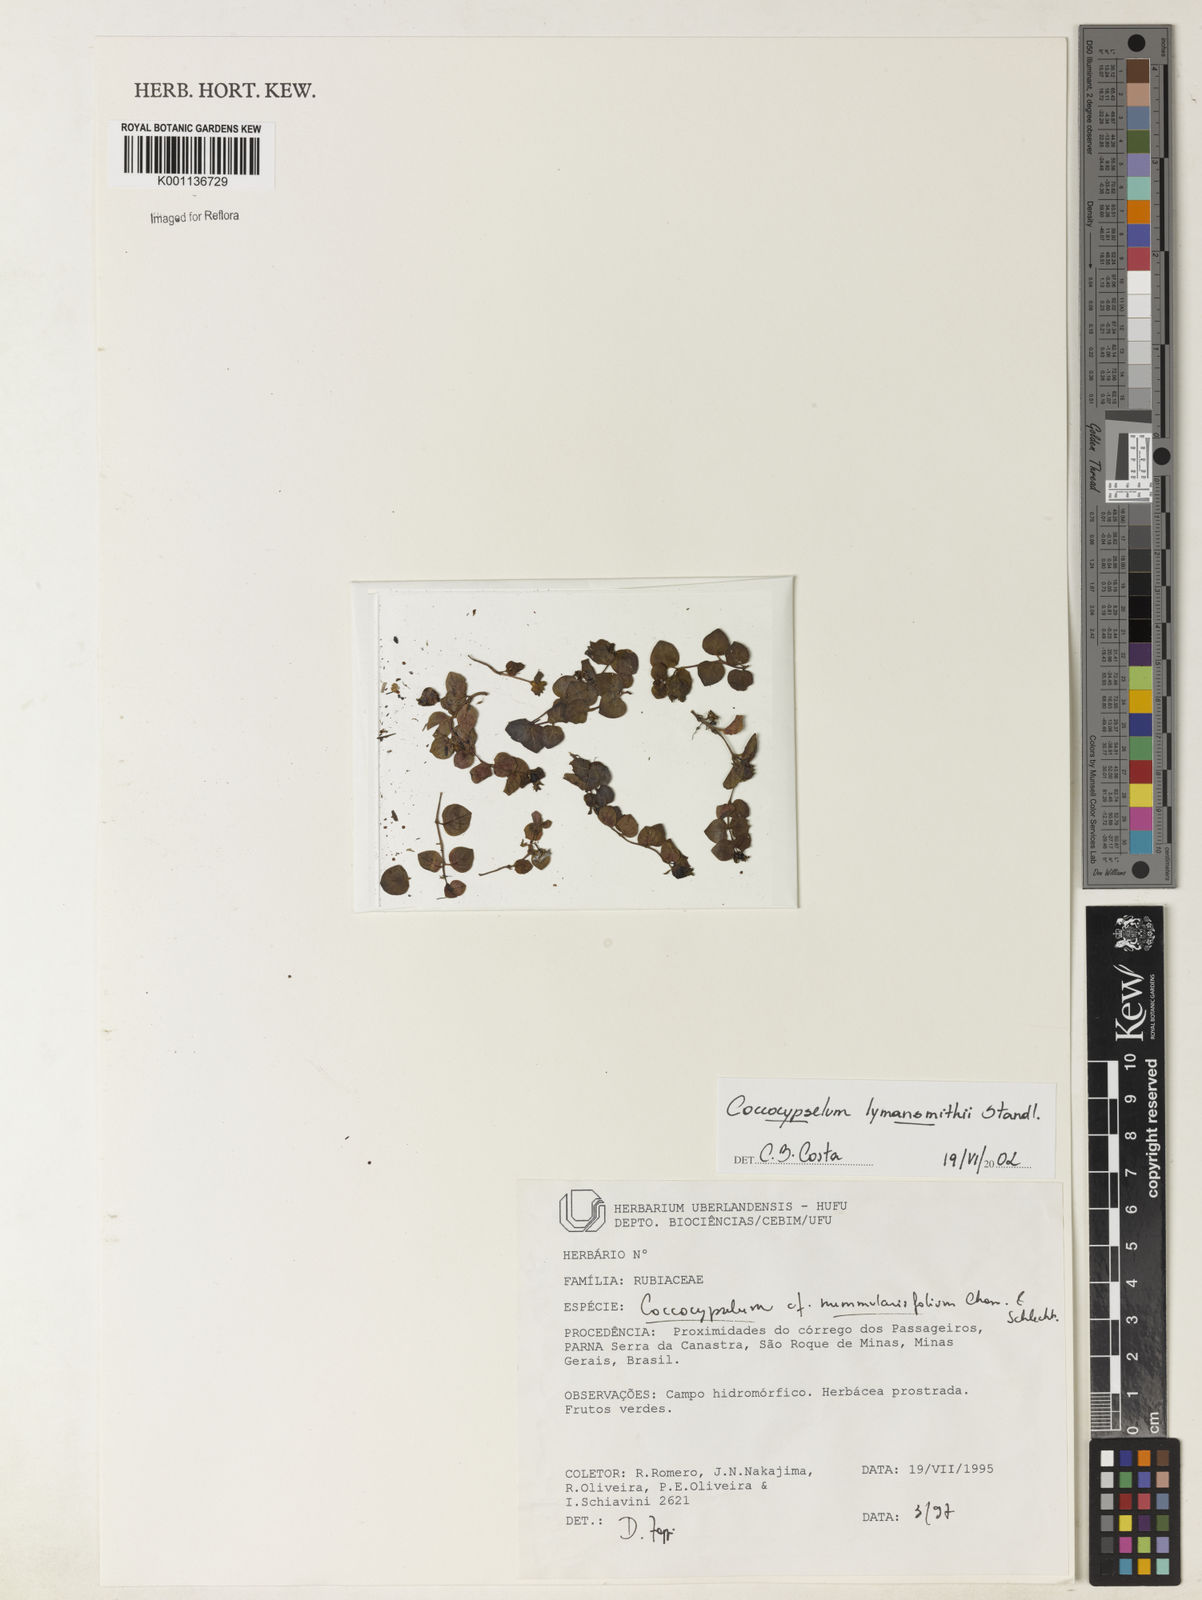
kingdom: Plantae
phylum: Tracheophyta
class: Magnoliopsida
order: Gentianales
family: Rubiaceae
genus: Coccocypselum
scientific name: Coccocypselum lymansmithii
